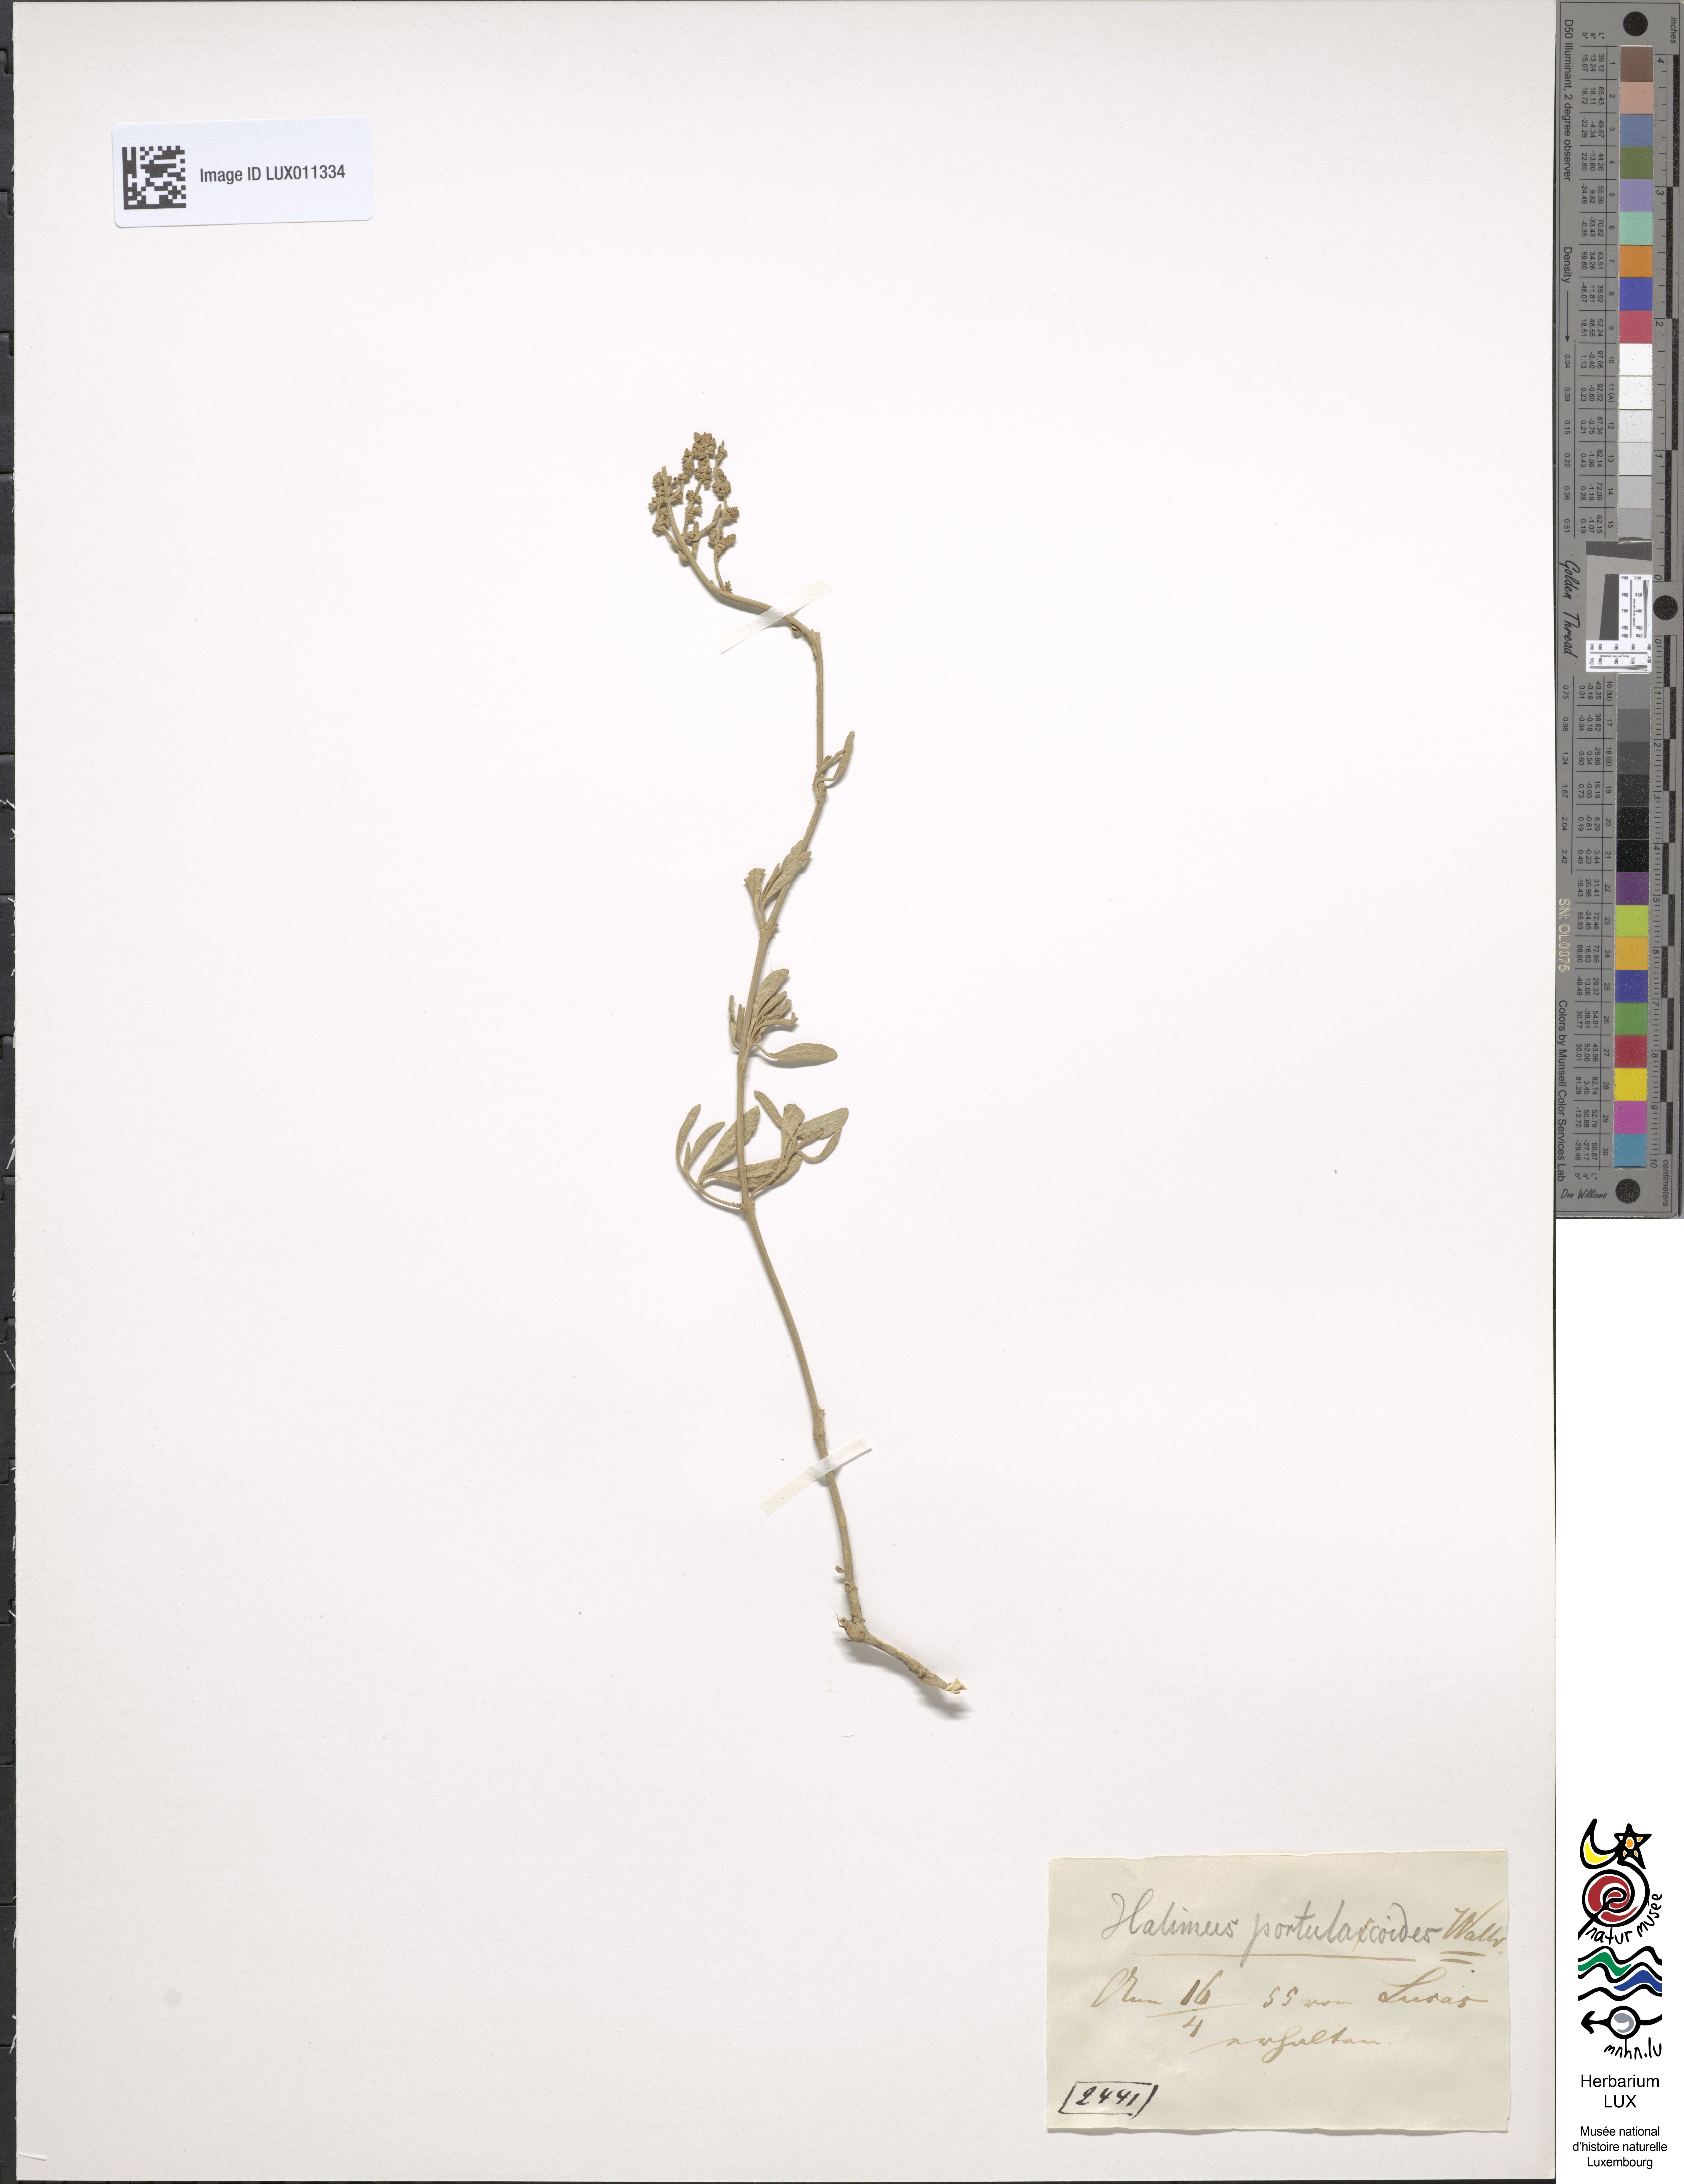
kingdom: Plantae
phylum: Tracheophyta
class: Magnoliopsida
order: Caryophyllales
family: Amaranthaceae
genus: Halimione
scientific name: Halimione portulacoides
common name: Sea-purslane
